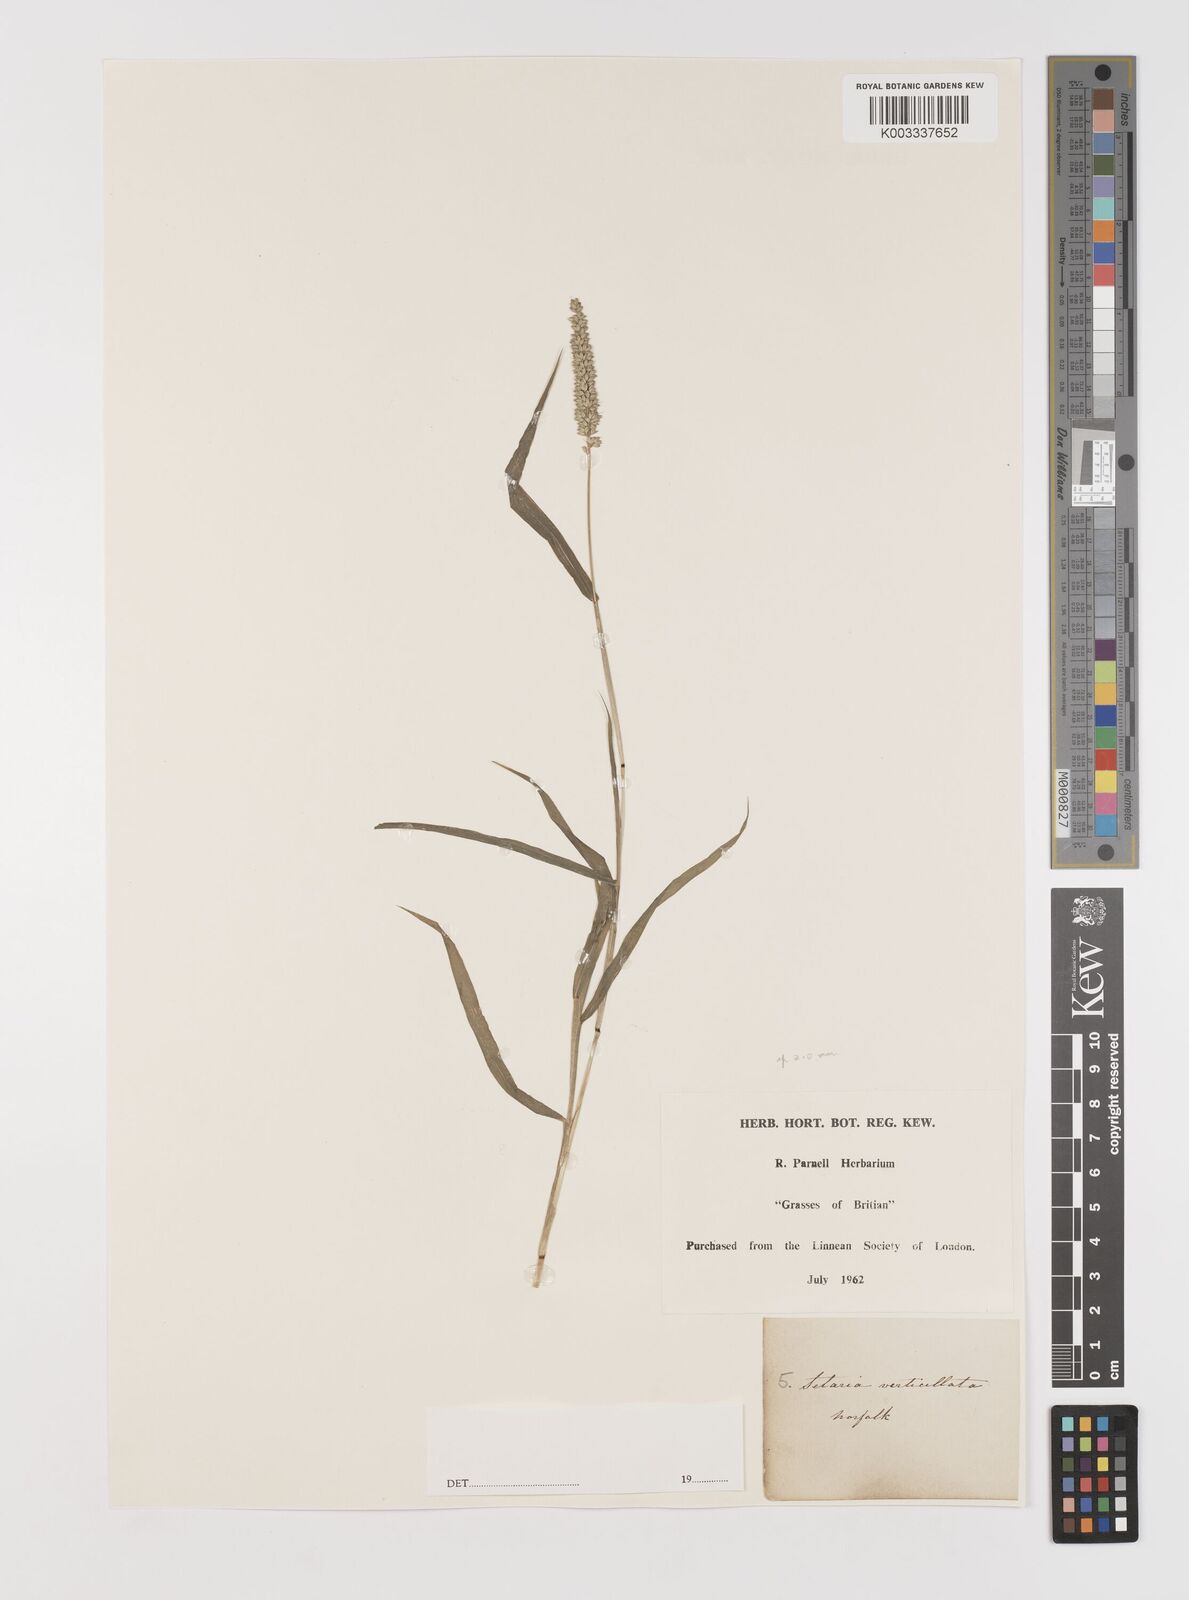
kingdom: Plantae
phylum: Tracheophyta
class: Liliopsida
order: Poales
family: Poaceae
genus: Setaria
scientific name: Setaria verticillata
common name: Hooked bristlegrass
